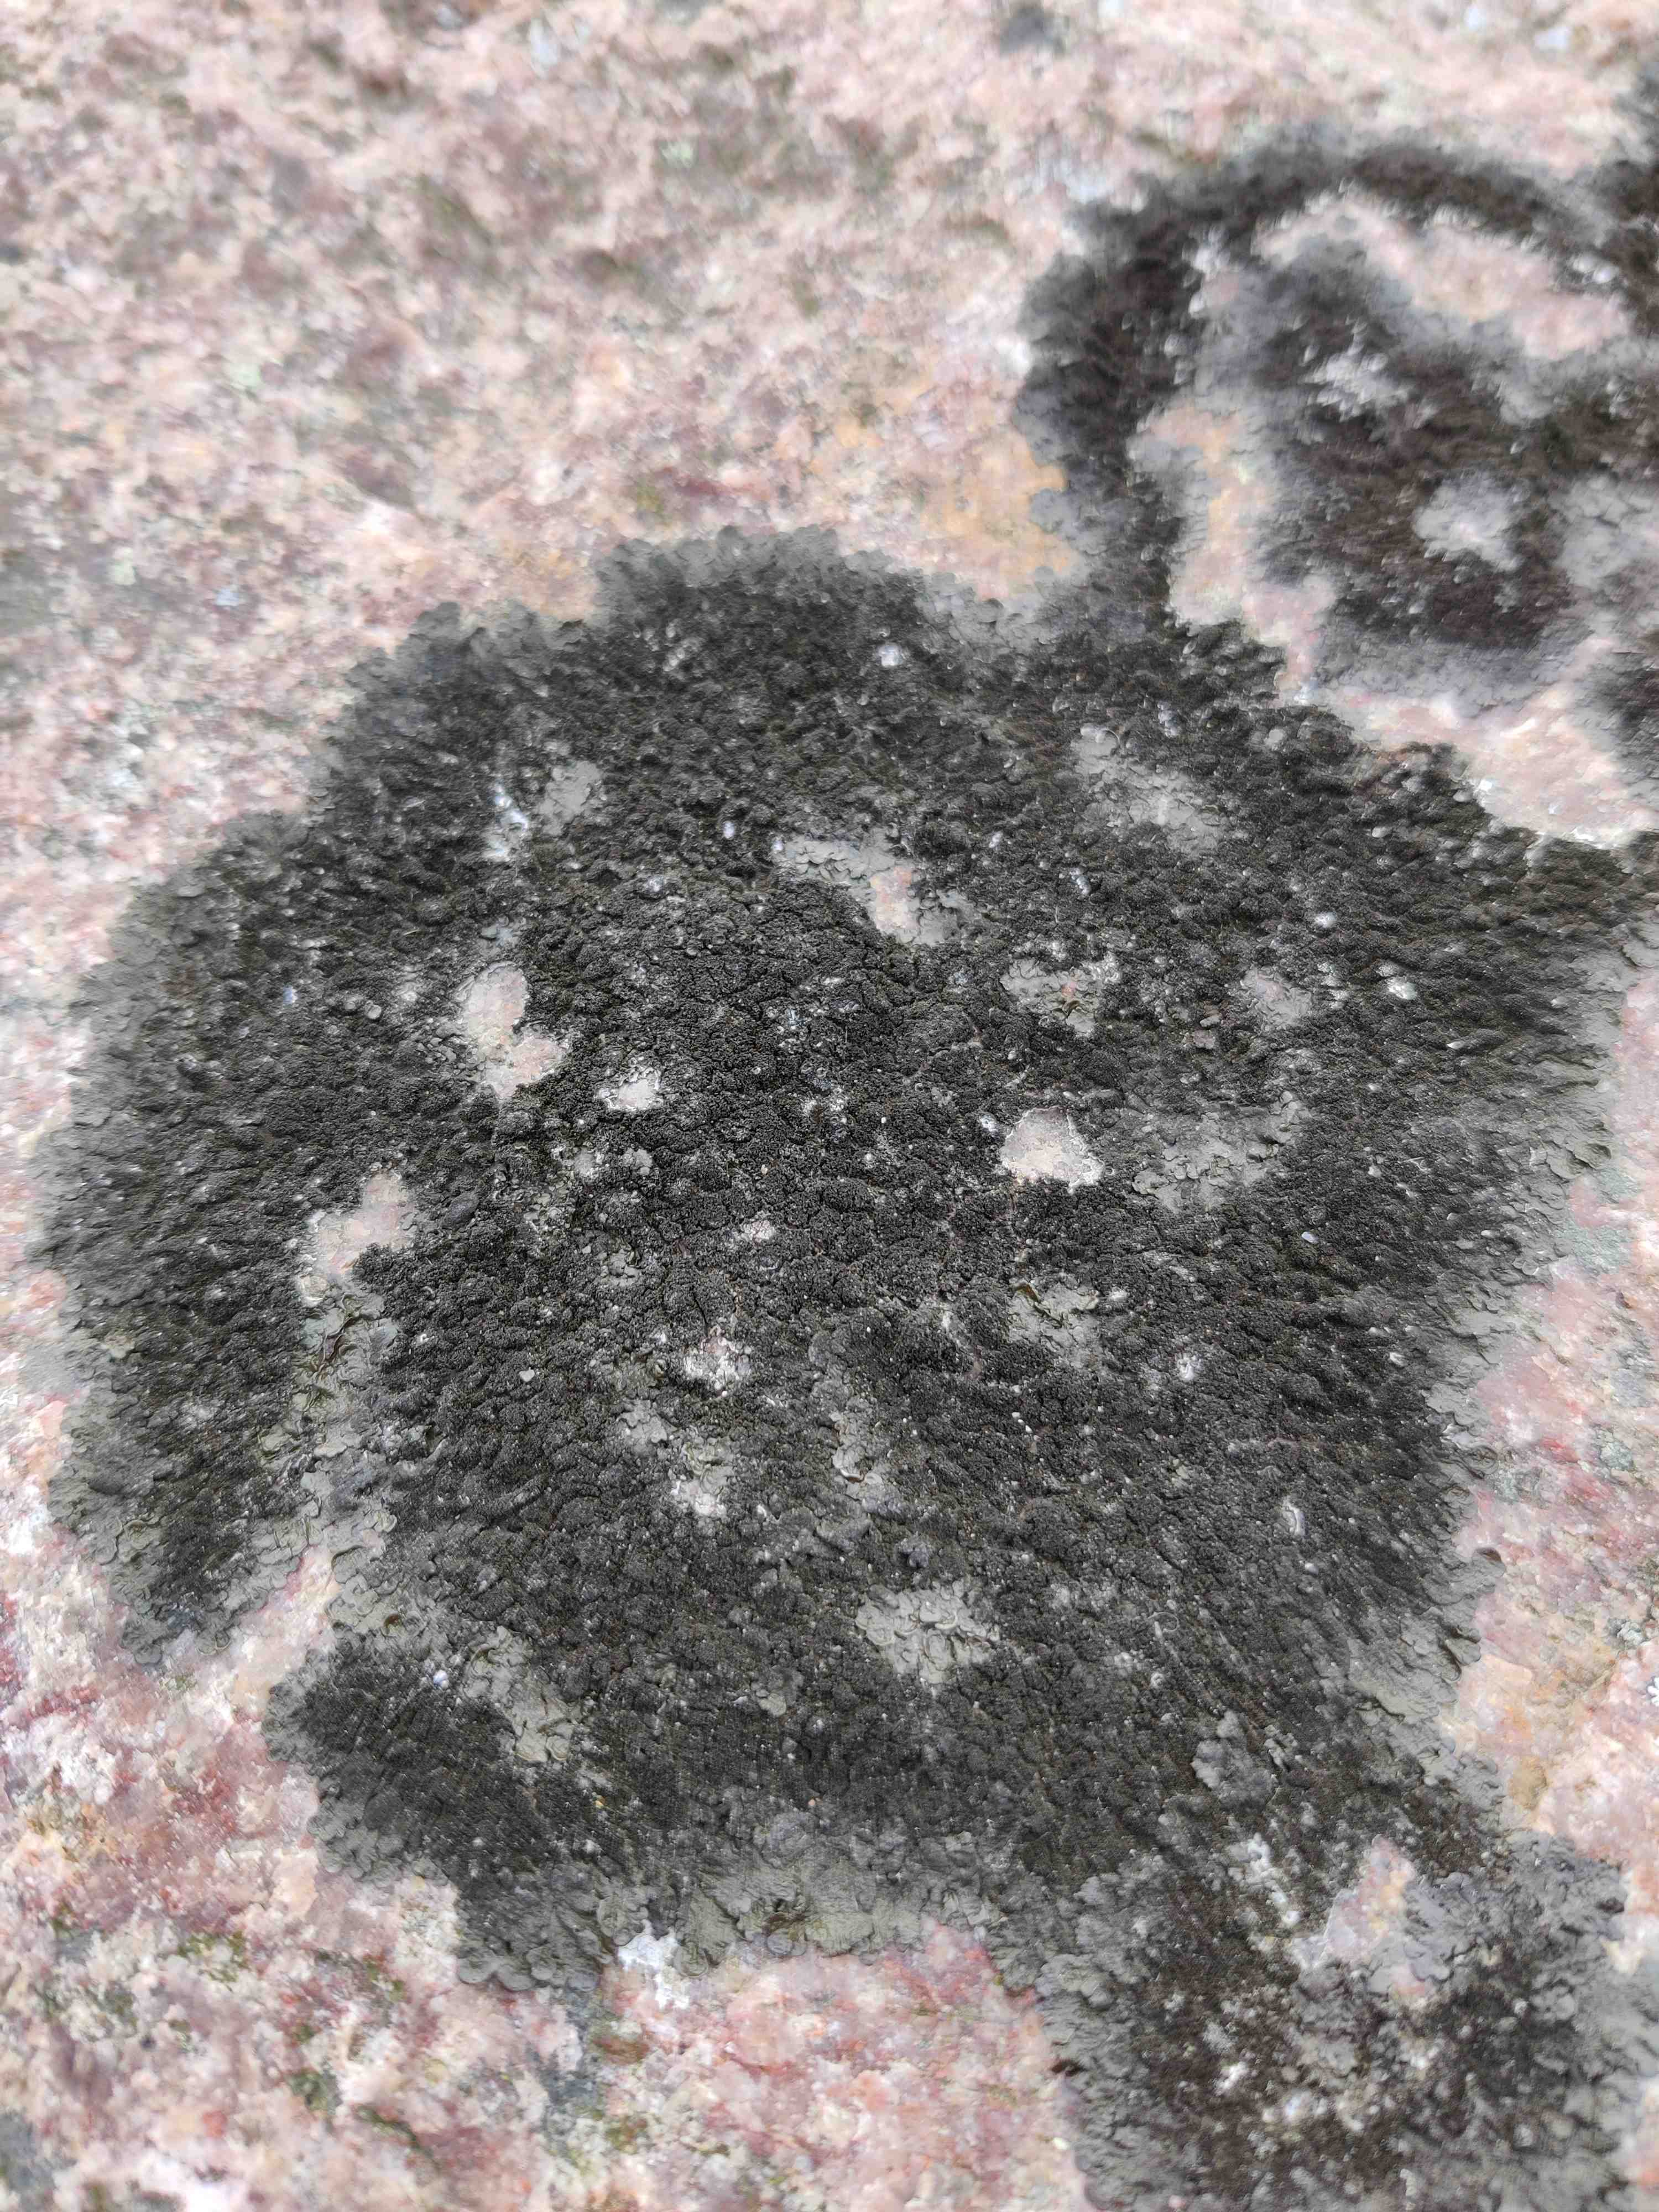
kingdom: Fungi
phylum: Ascomycota
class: Lecanoromycetes
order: Lecanorales
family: Parmeliaceae
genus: Melanelixia
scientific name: Melanelixia fuliginosa
